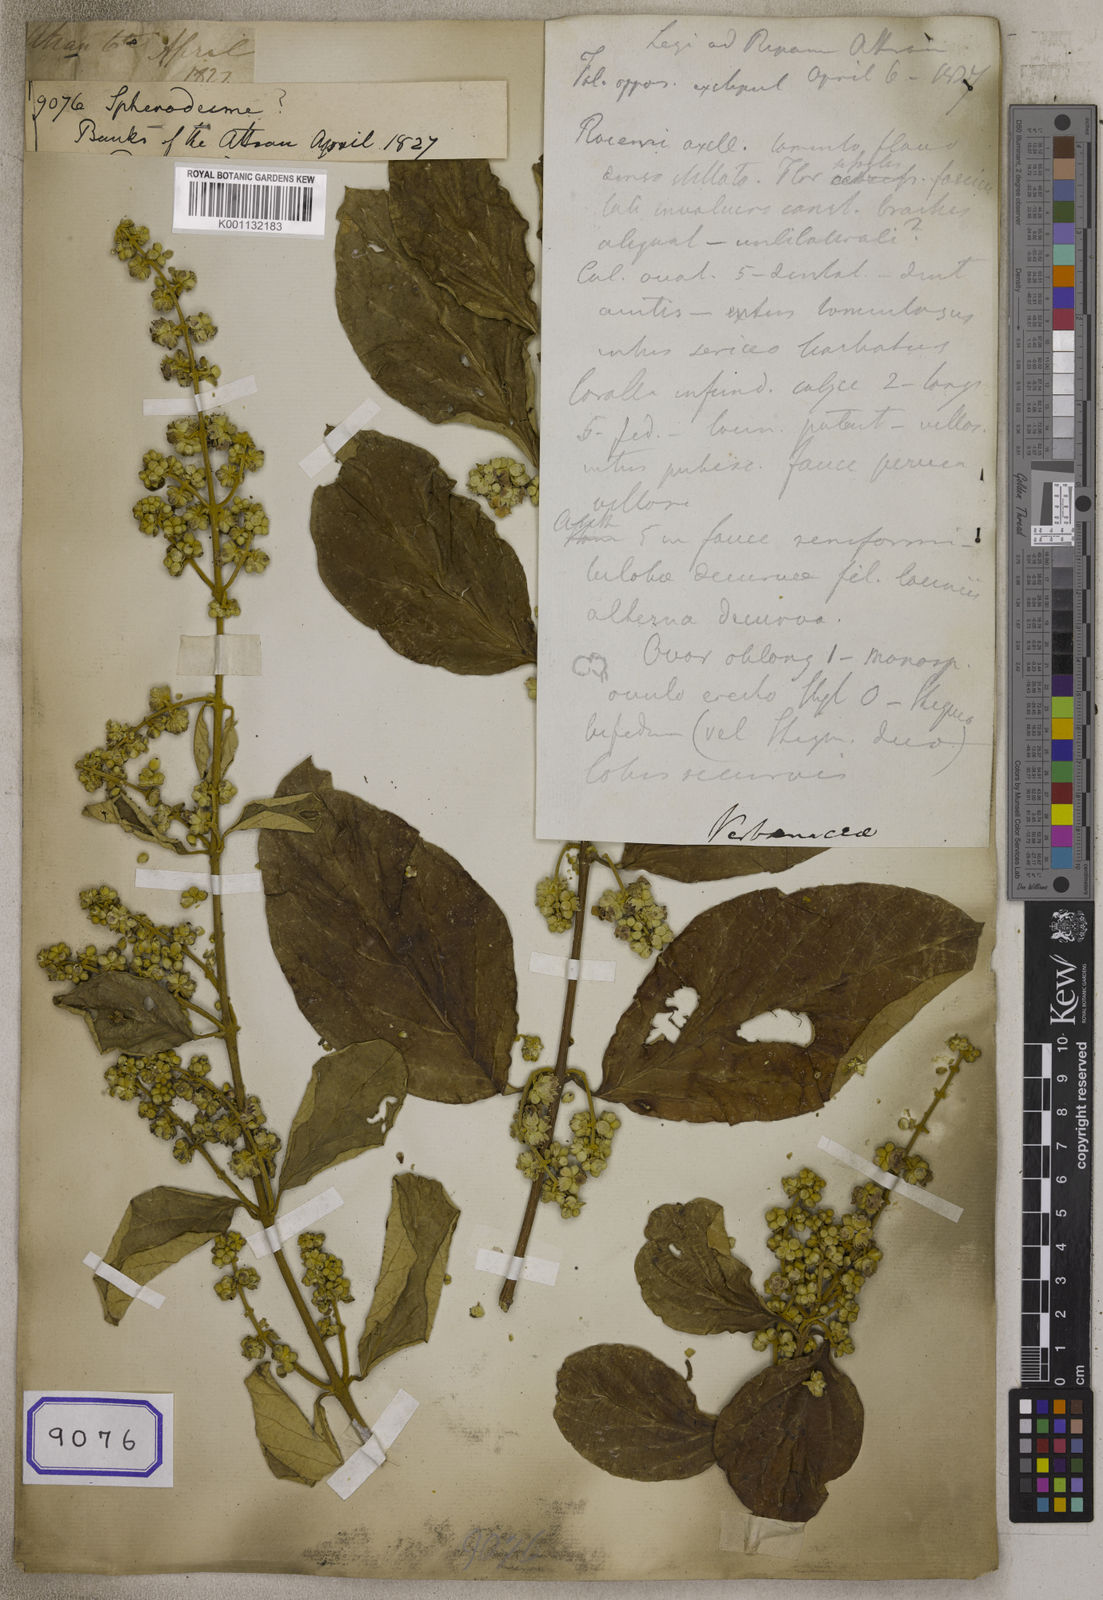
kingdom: Plantae
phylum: Tracheophyta
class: Magnoliopsida
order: Lamiales
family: Lamiaceae
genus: Sphenodesme
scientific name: Sphenodesme
